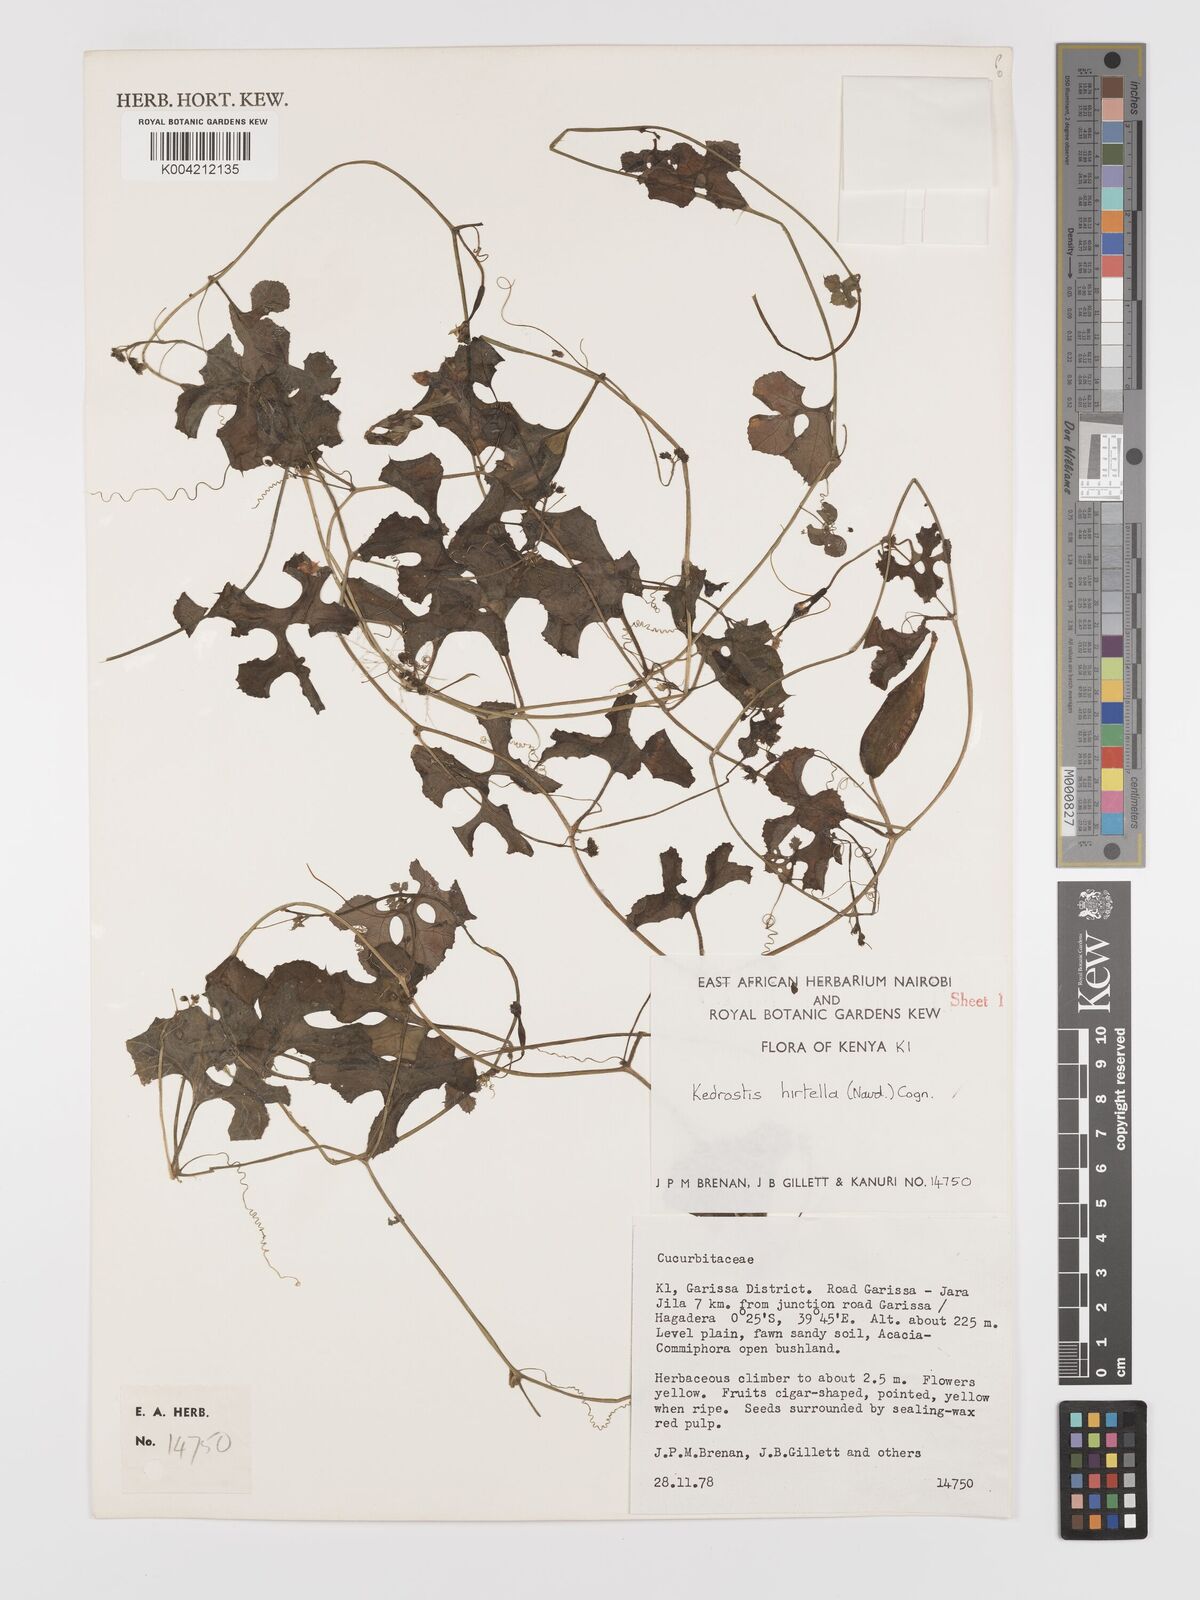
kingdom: Plantae
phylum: Tracheophyta
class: Magnoliopsida
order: Cucurbitales
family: Cucurbitaceae
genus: Kedrostis
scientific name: Kedrostis leloja
